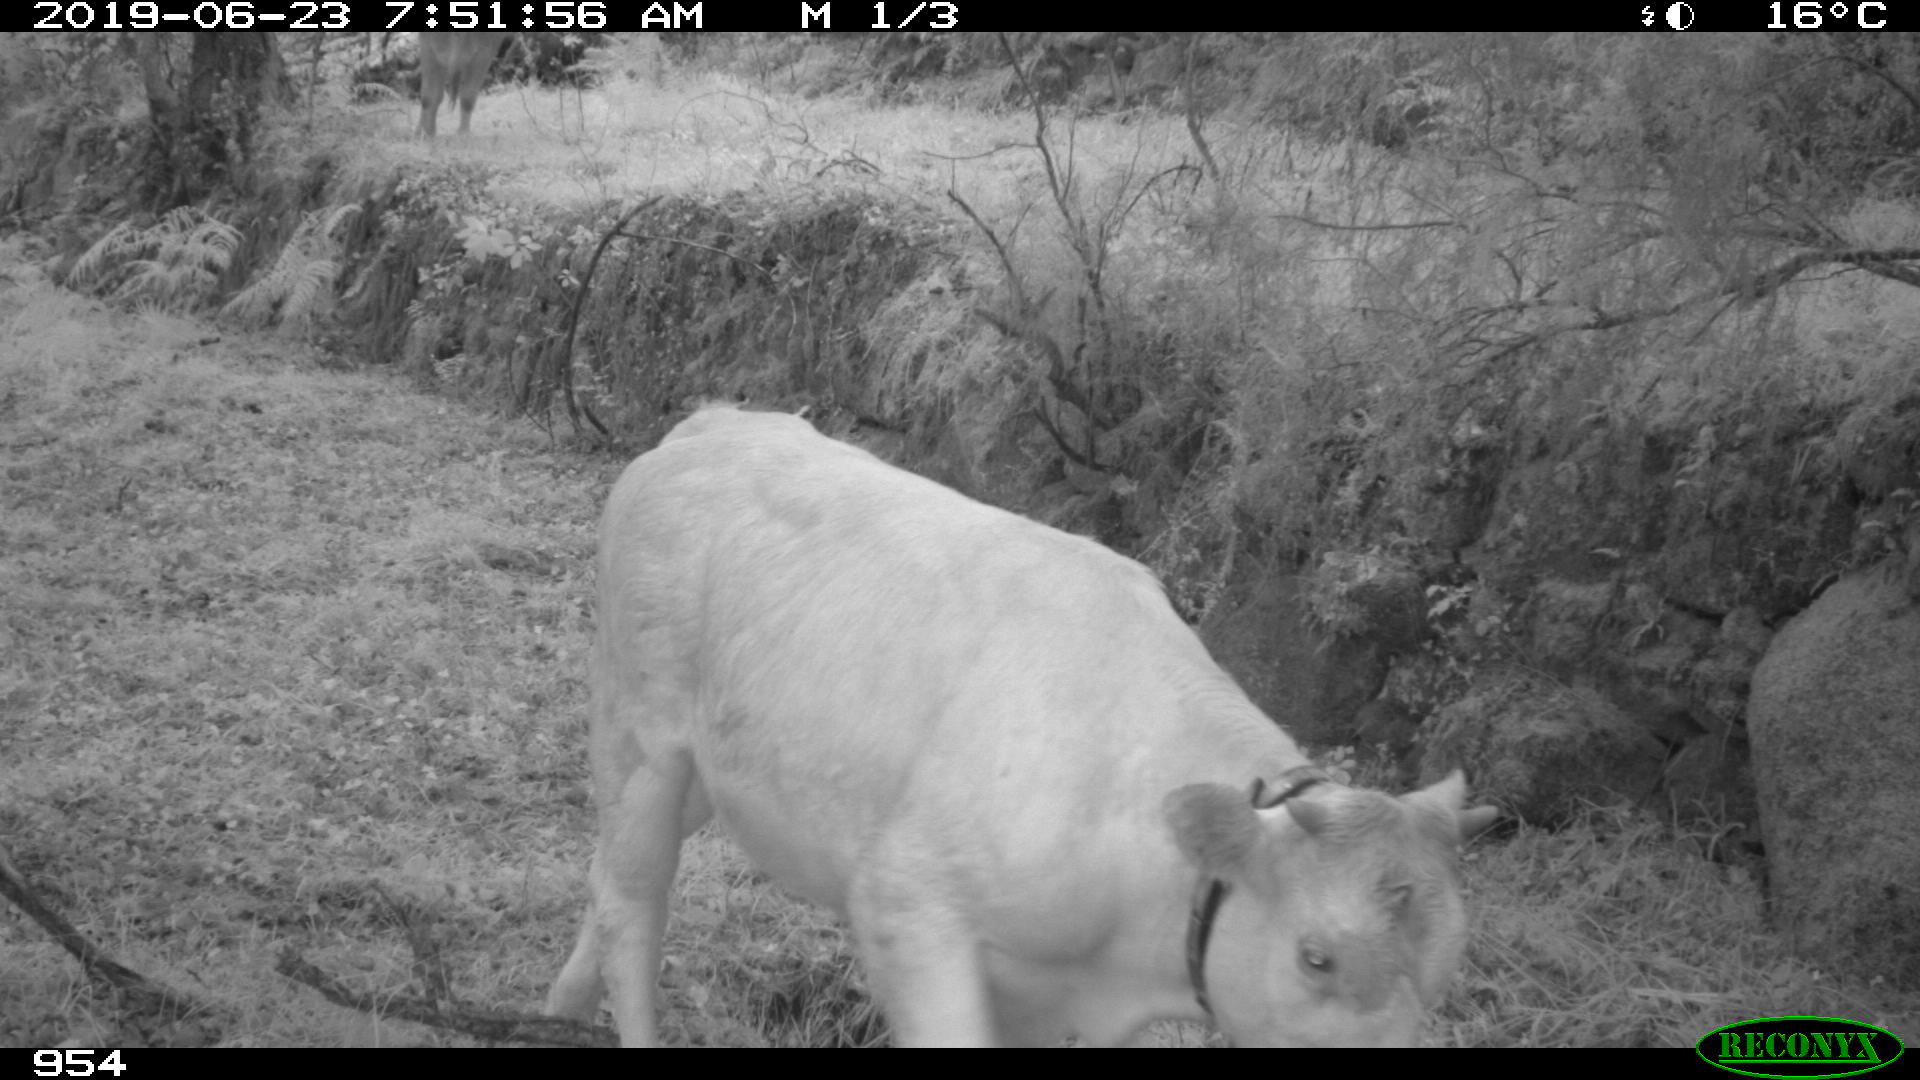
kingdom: Animalia
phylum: Chordata
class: Mammalia
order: Artiodactyla
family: Bovidae
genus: Bos
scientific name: Bos taurus
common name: Domesticated cattle
